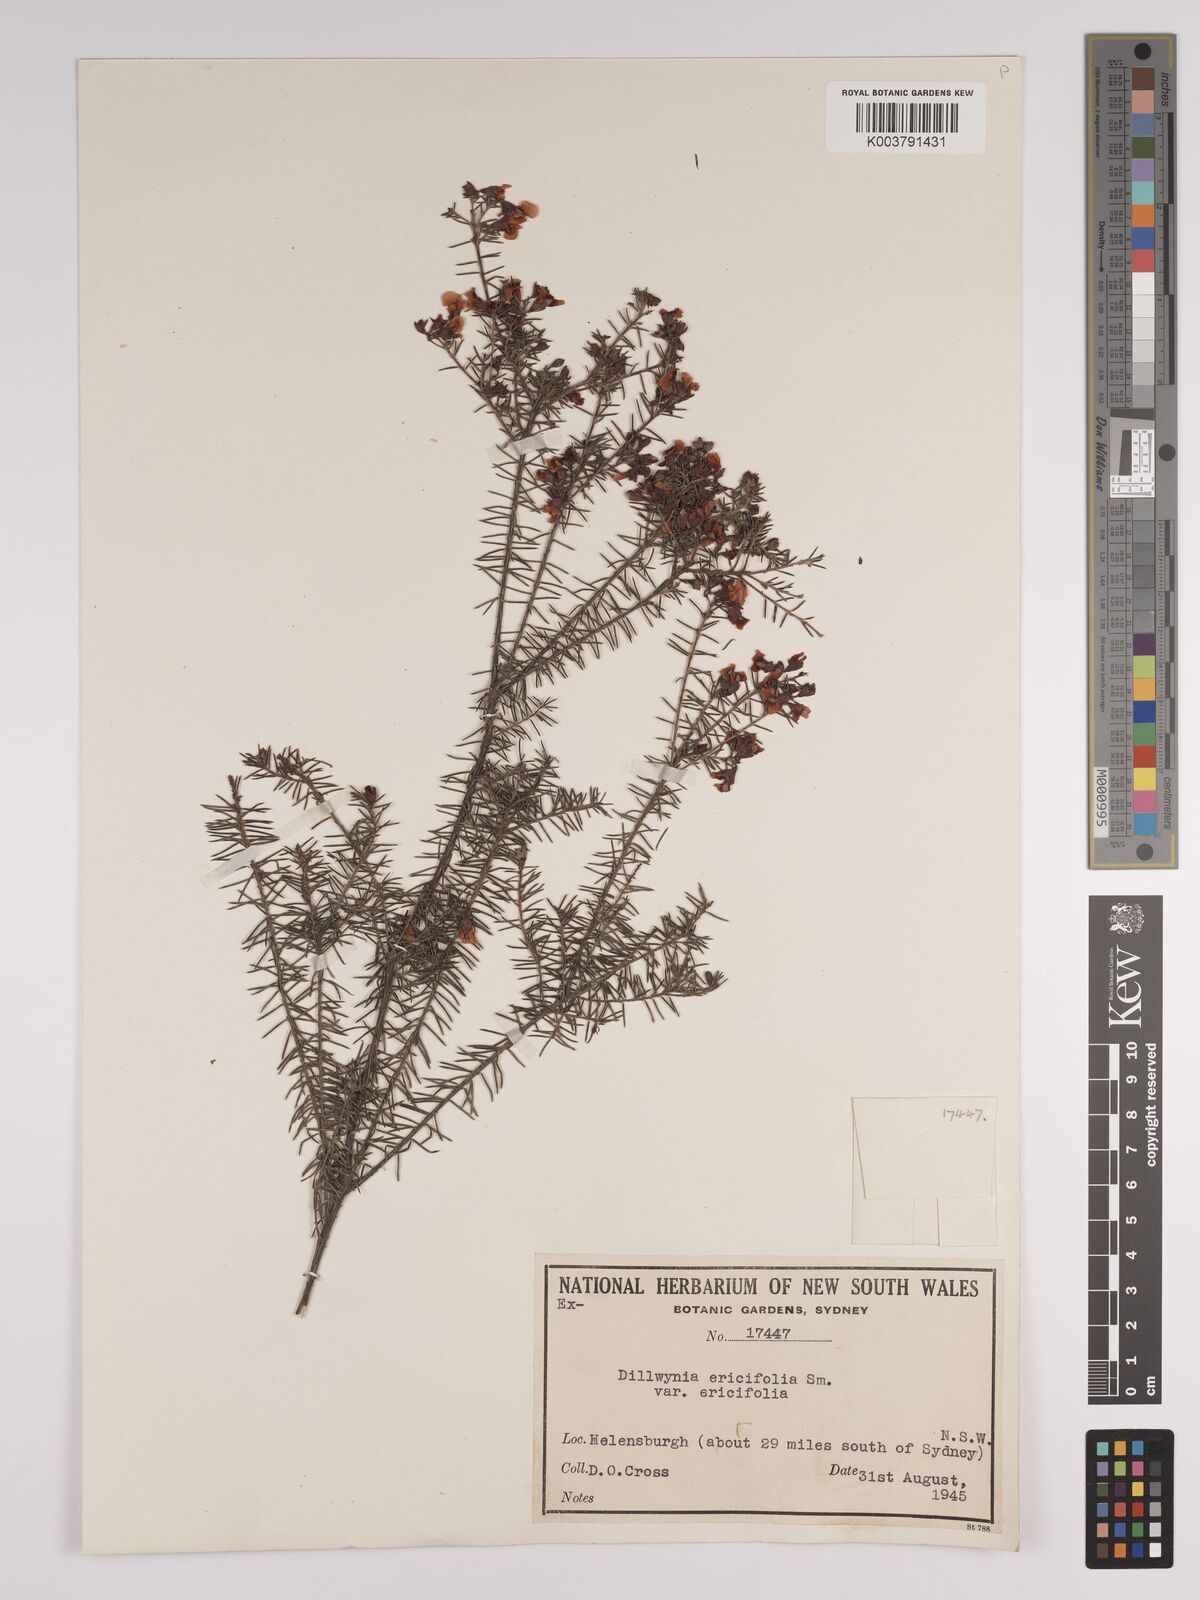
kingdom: Plantae
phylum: Tracheophyta
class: Magnoliopsida
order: Fabales
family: Fabaceae
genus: Dillwynia
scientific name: Dillwynia retorta
